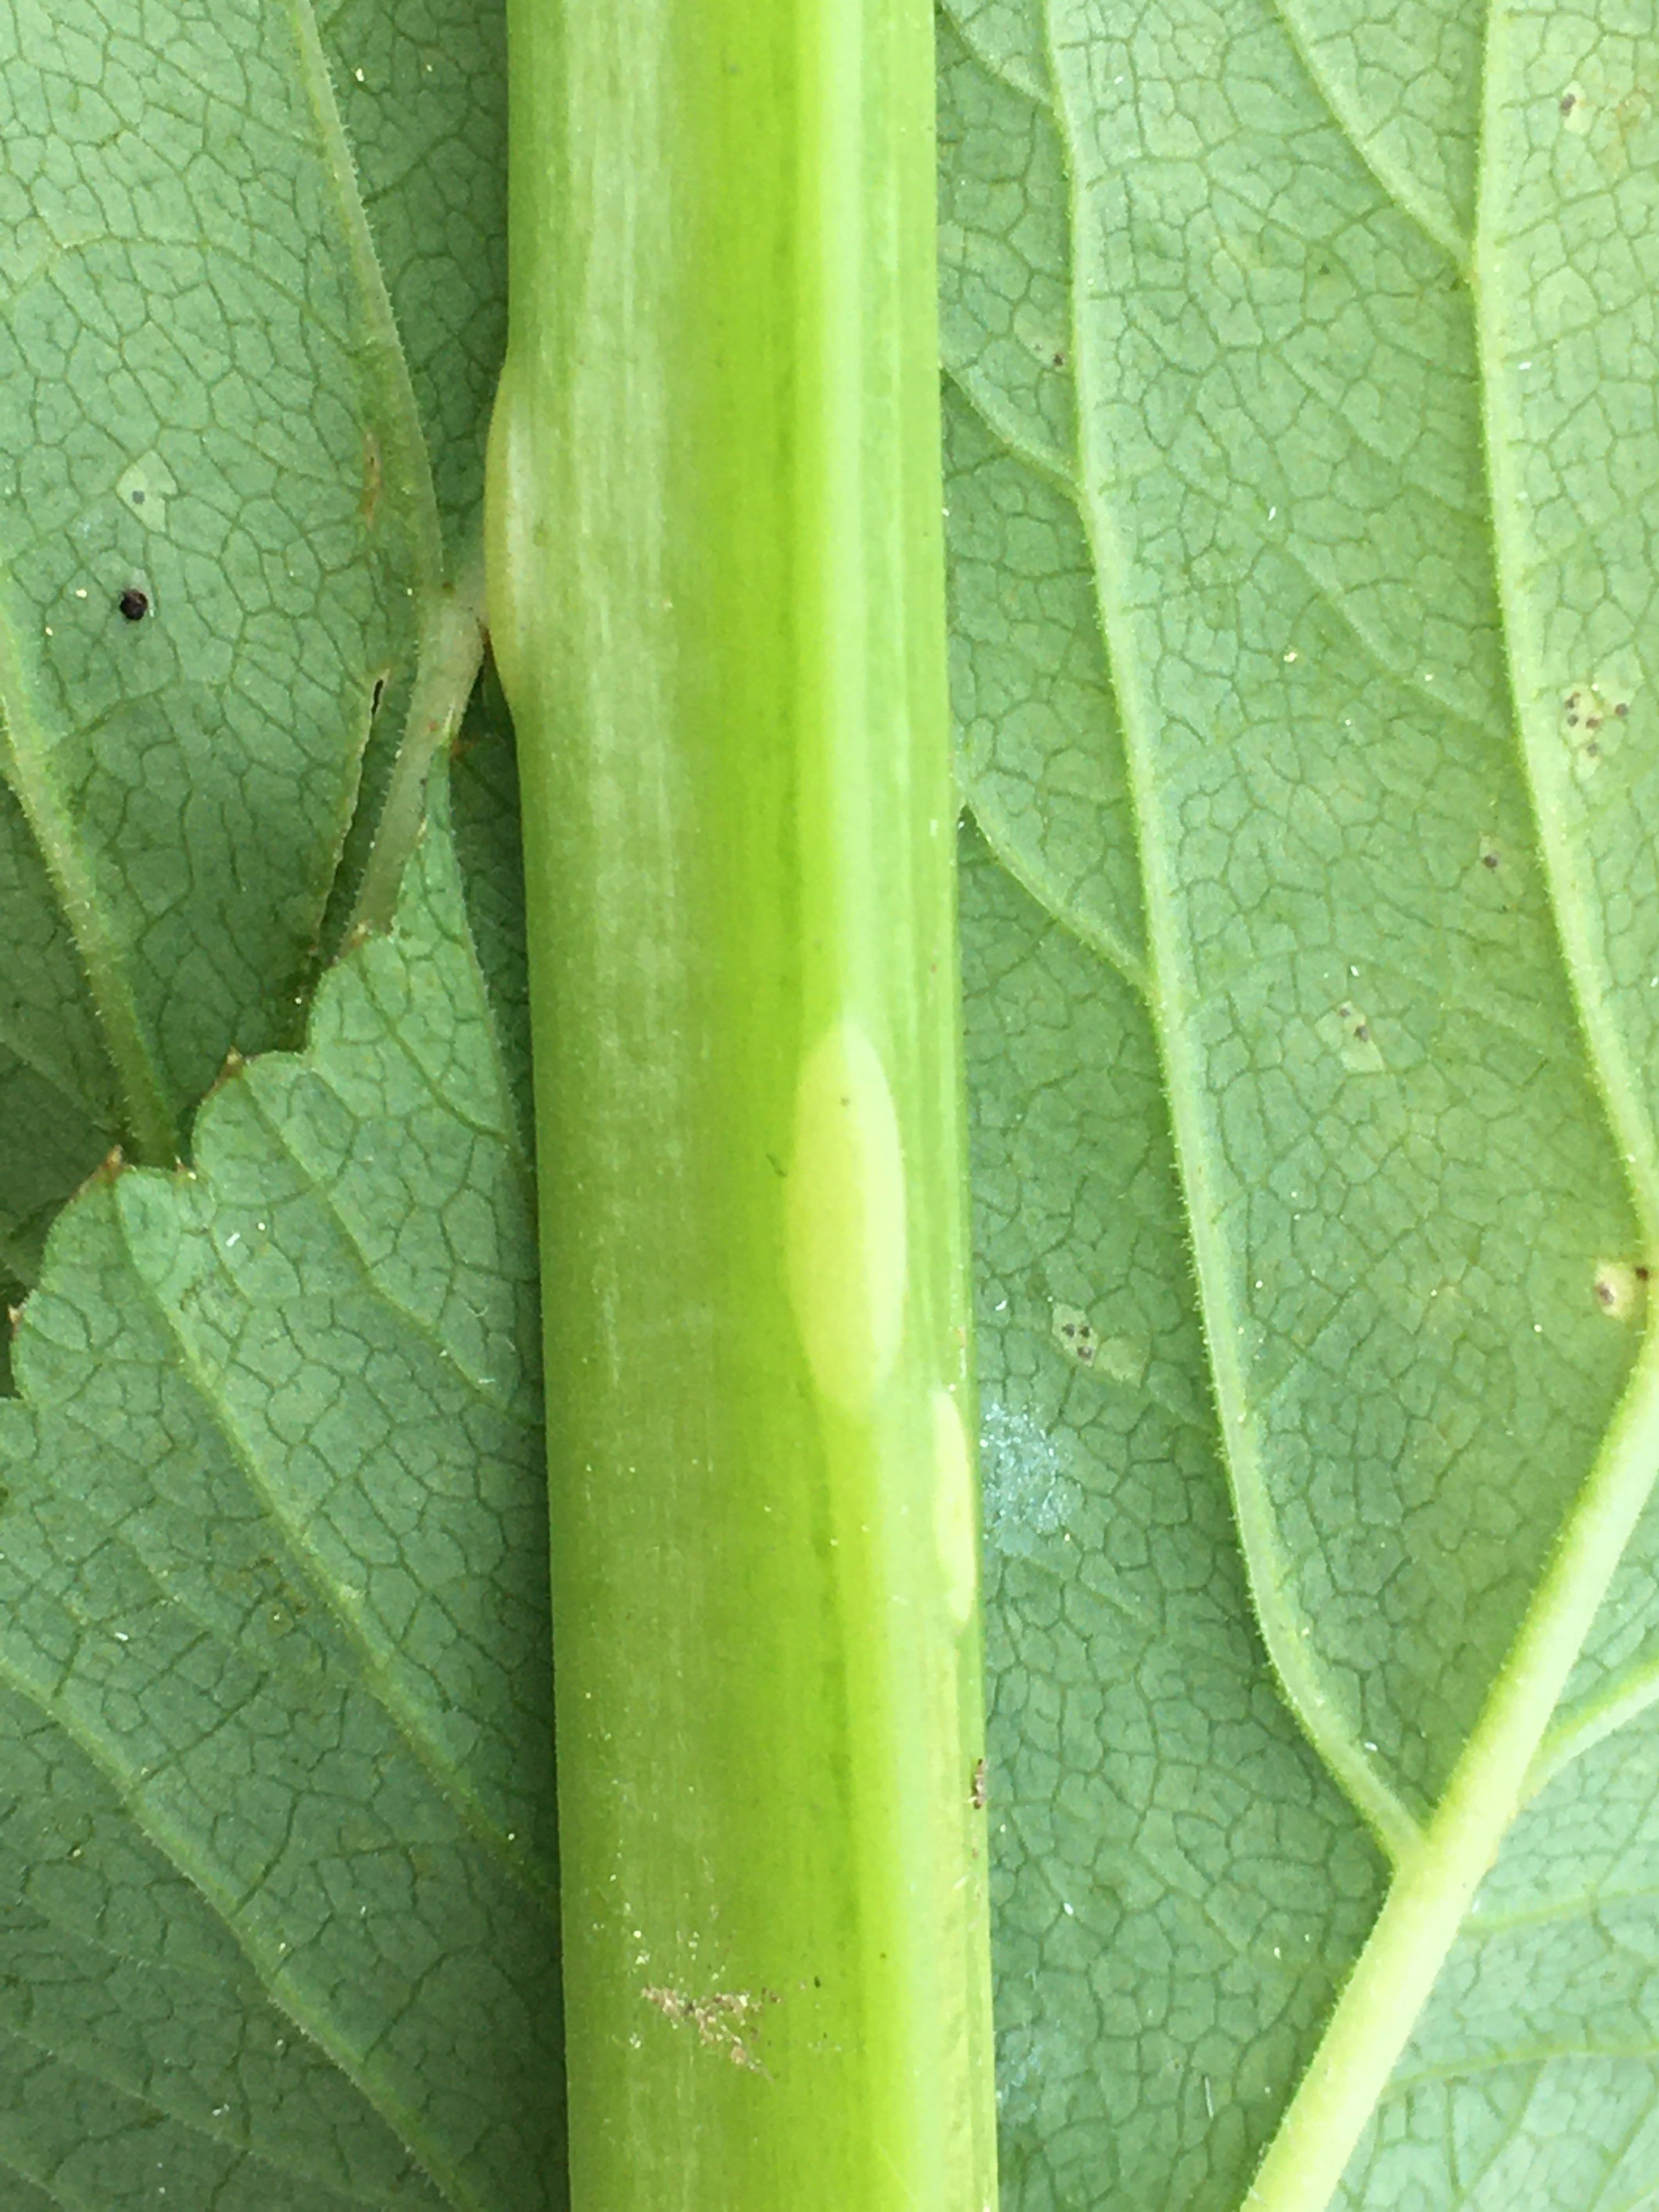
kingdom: Fungi
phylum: Ascomycota
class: Taphrinomycetes
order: Taphrinales
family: Taphrinaceae
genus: Protomyces
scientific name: Protomyces macrosporus
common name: skvalderkål-vablesæk
